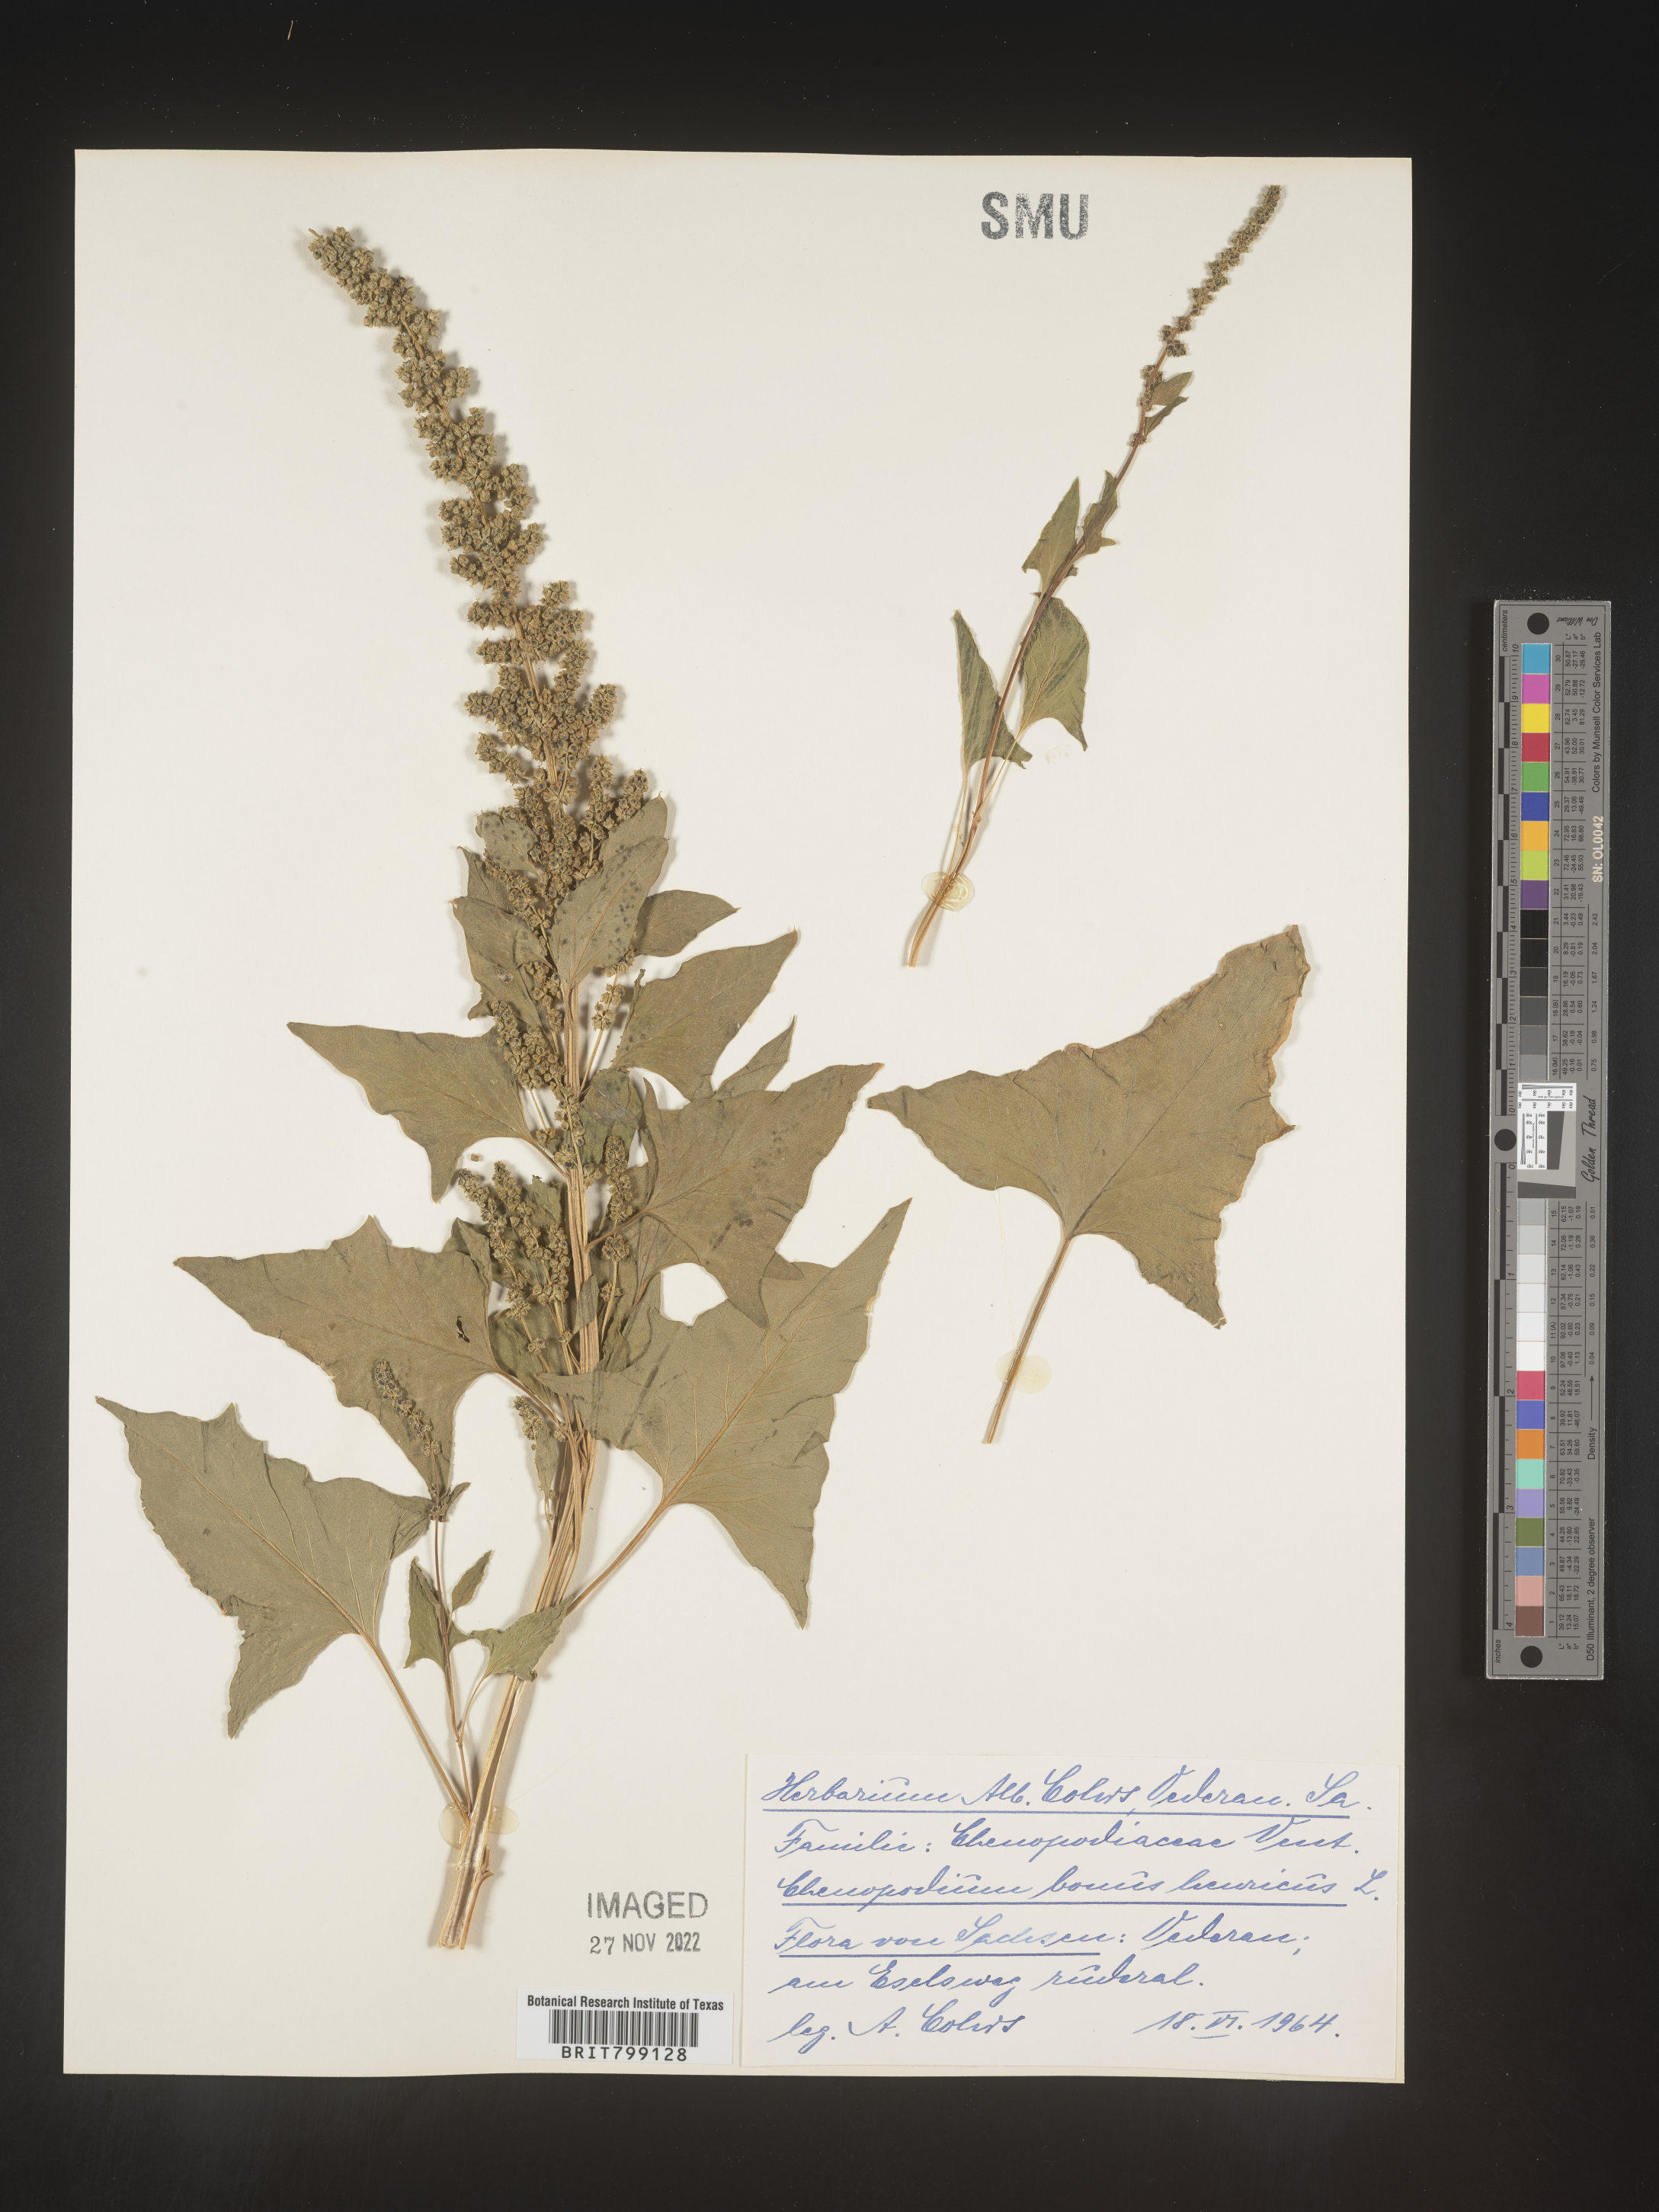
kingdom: Plantae
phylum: Tracheophyta
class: Magnoliopsida
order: Caryophyllales
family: Amaranthaceae
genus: Blitum
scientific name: Blitum bonus-henricus
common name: Good king henry
